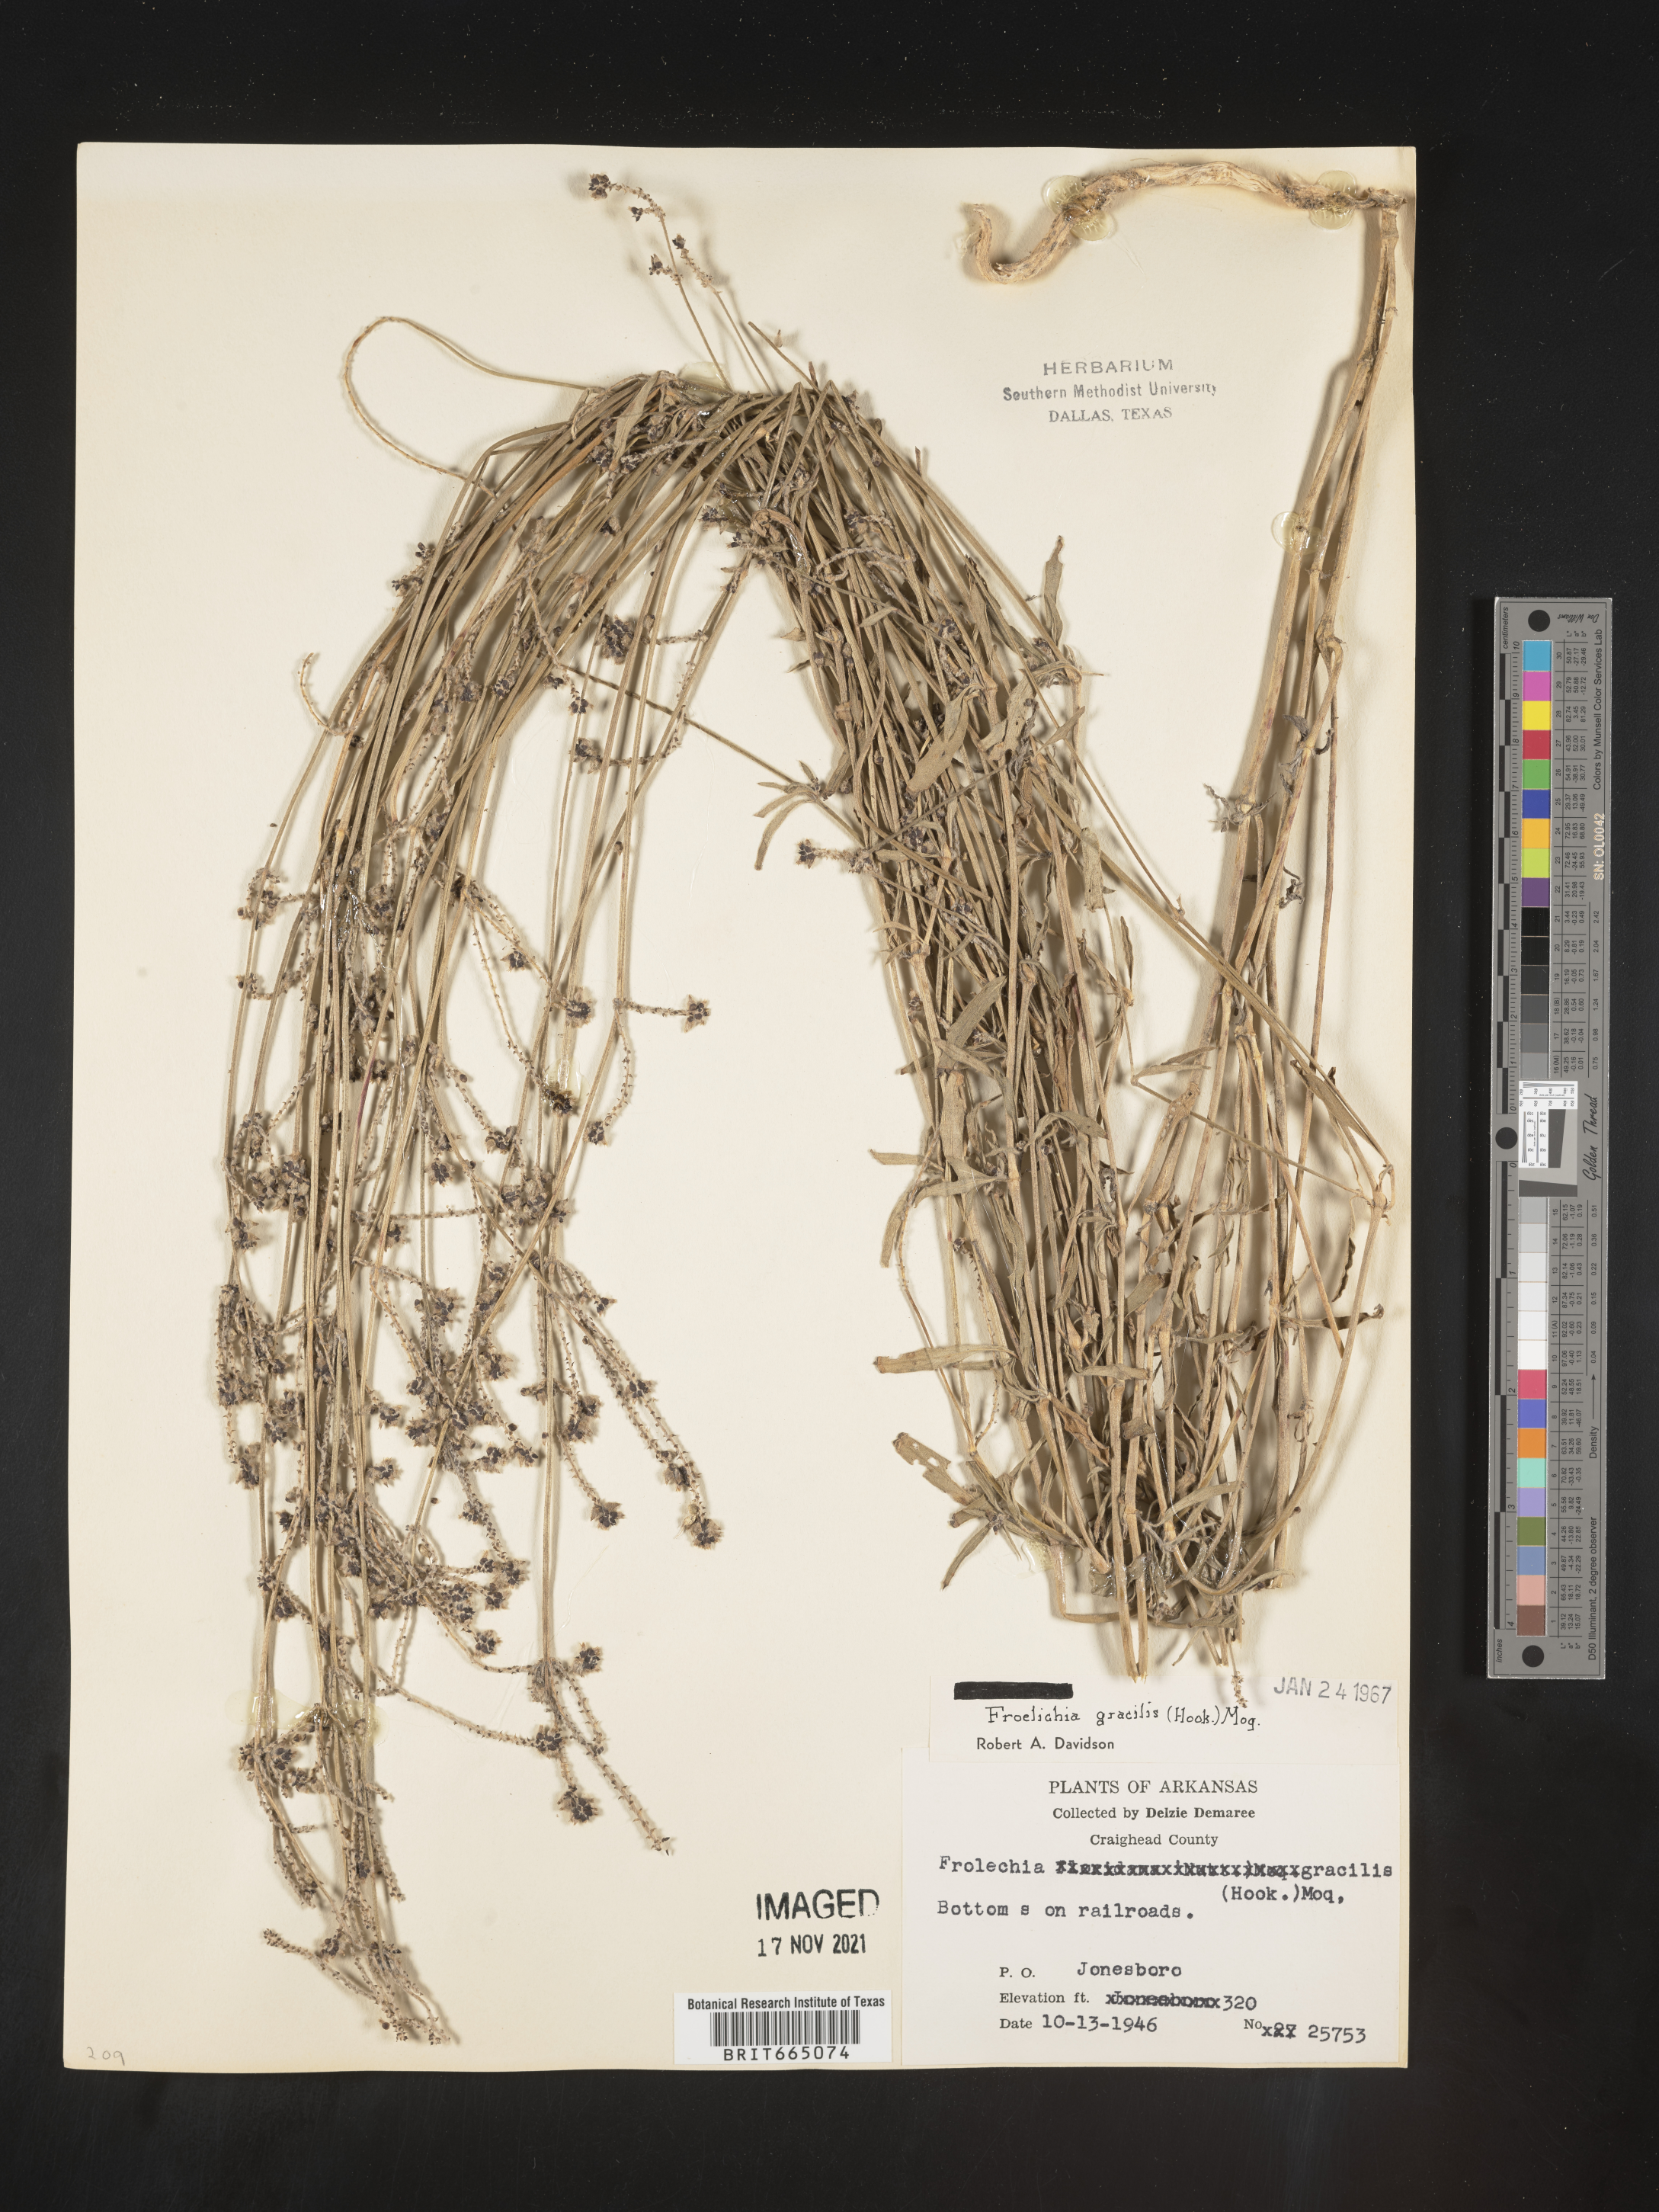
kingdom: Plantae
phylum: Tracheophyta
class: Magnoliopsida
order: Caryophyllales
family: Amaranthaceae
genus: Froelichia
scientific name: Froelichia gracilis
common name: Slender cottonweed
